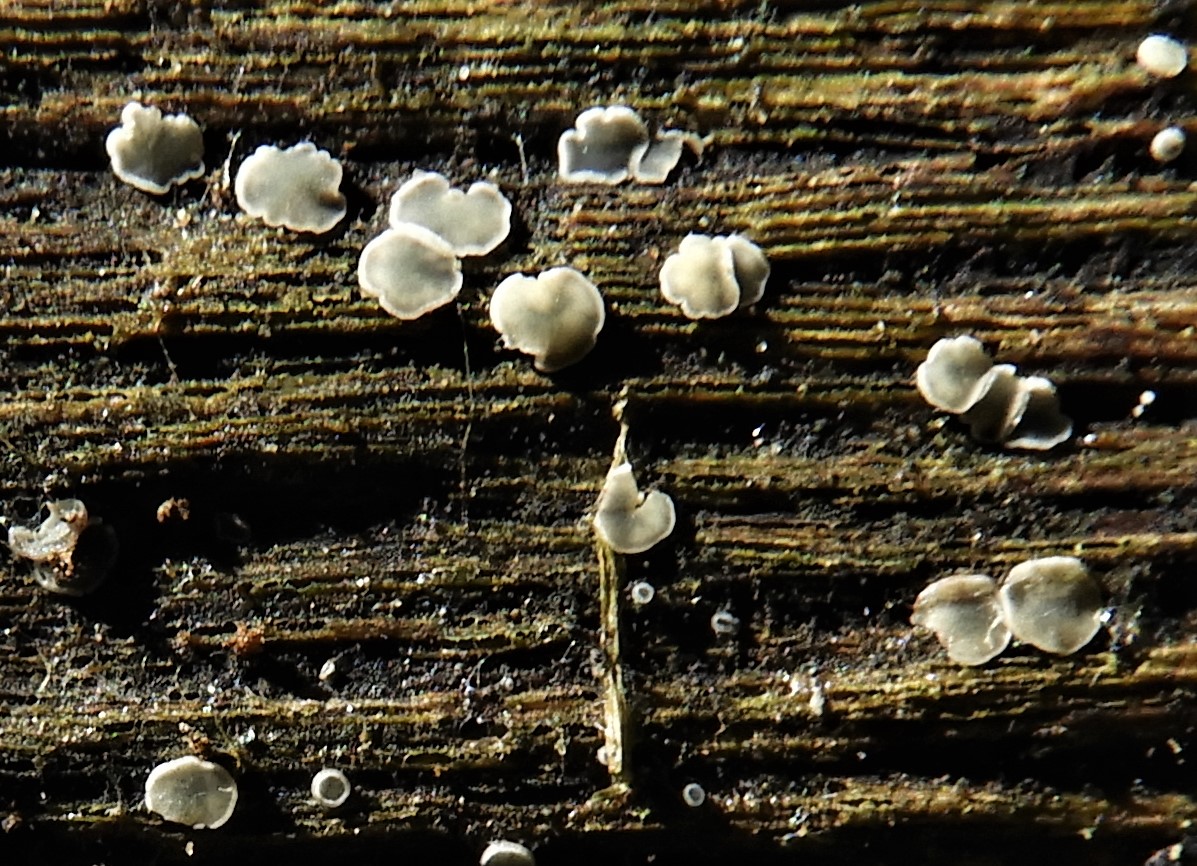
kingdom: Fungi
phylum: Ascomycota
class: Leotiomycetes
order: Helotiales
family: Mollisiaceae
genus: Mollisia
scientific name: Mollisia
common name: gråskive
